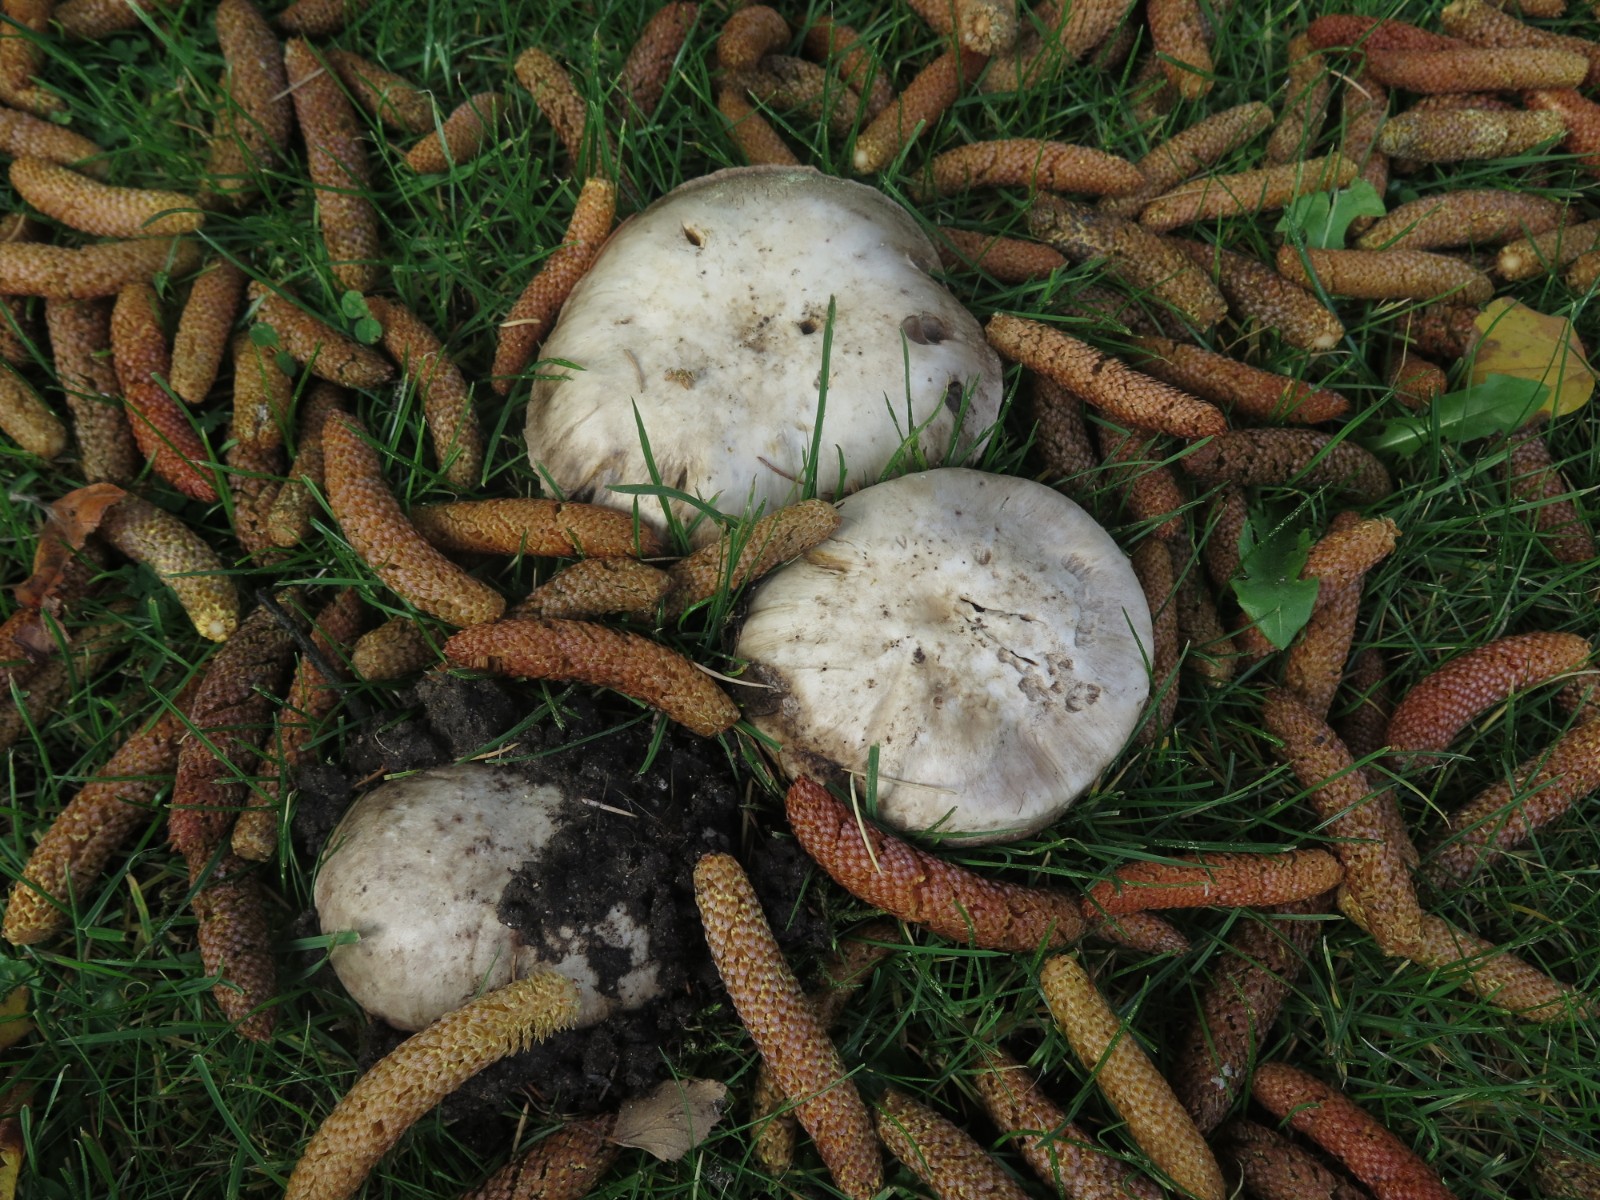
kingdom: Fungi
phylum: Basidiomycota
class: Agaricomycetes
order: Agaricales
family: Agaricaceae
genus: Agaricus
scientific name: Agaricus bitorquis
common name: vej-champignon
